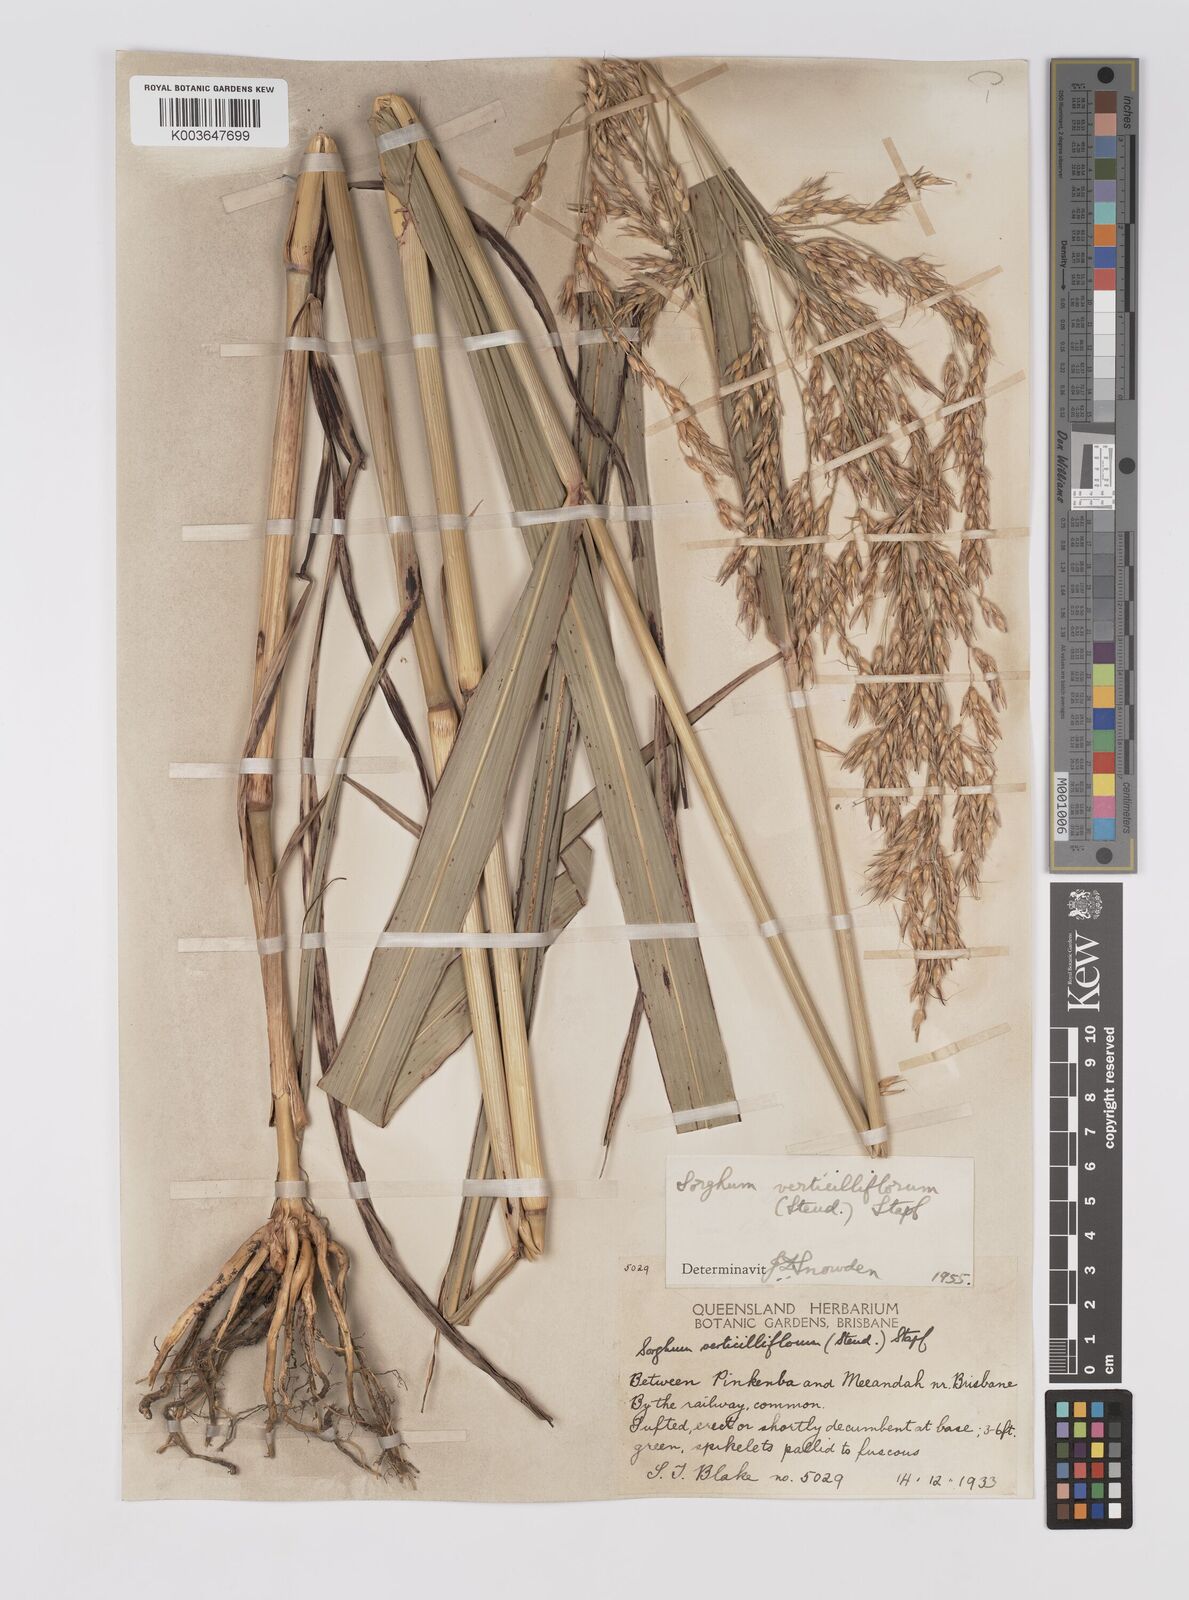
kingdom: Plantae
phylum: Tracheophyta
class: Liliopsida
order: Poales
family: Poaceae
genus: Sorghum
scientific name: Sorghum arundinaceum
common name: Sorghum
